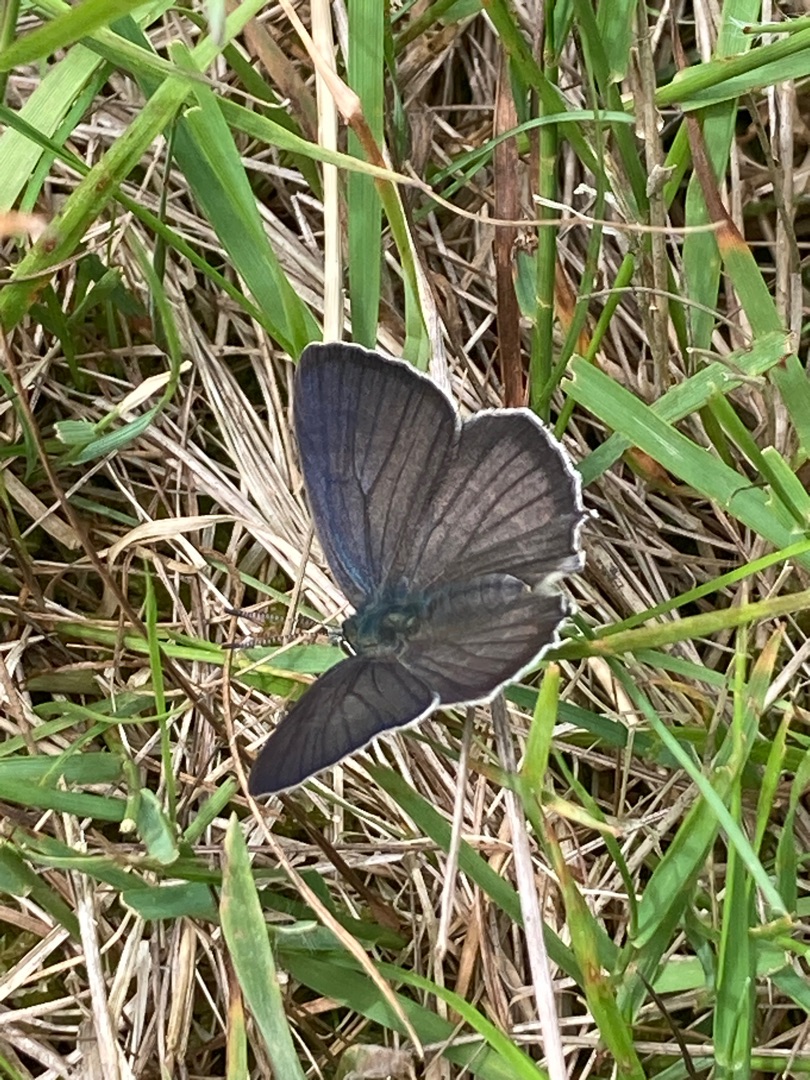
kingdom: Animalia
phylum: Arthropoda
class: Insecta
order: Lepidoptera
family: Lycaenidae
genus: Quercusia
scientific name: Quercusia quercus
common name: Blåhale
